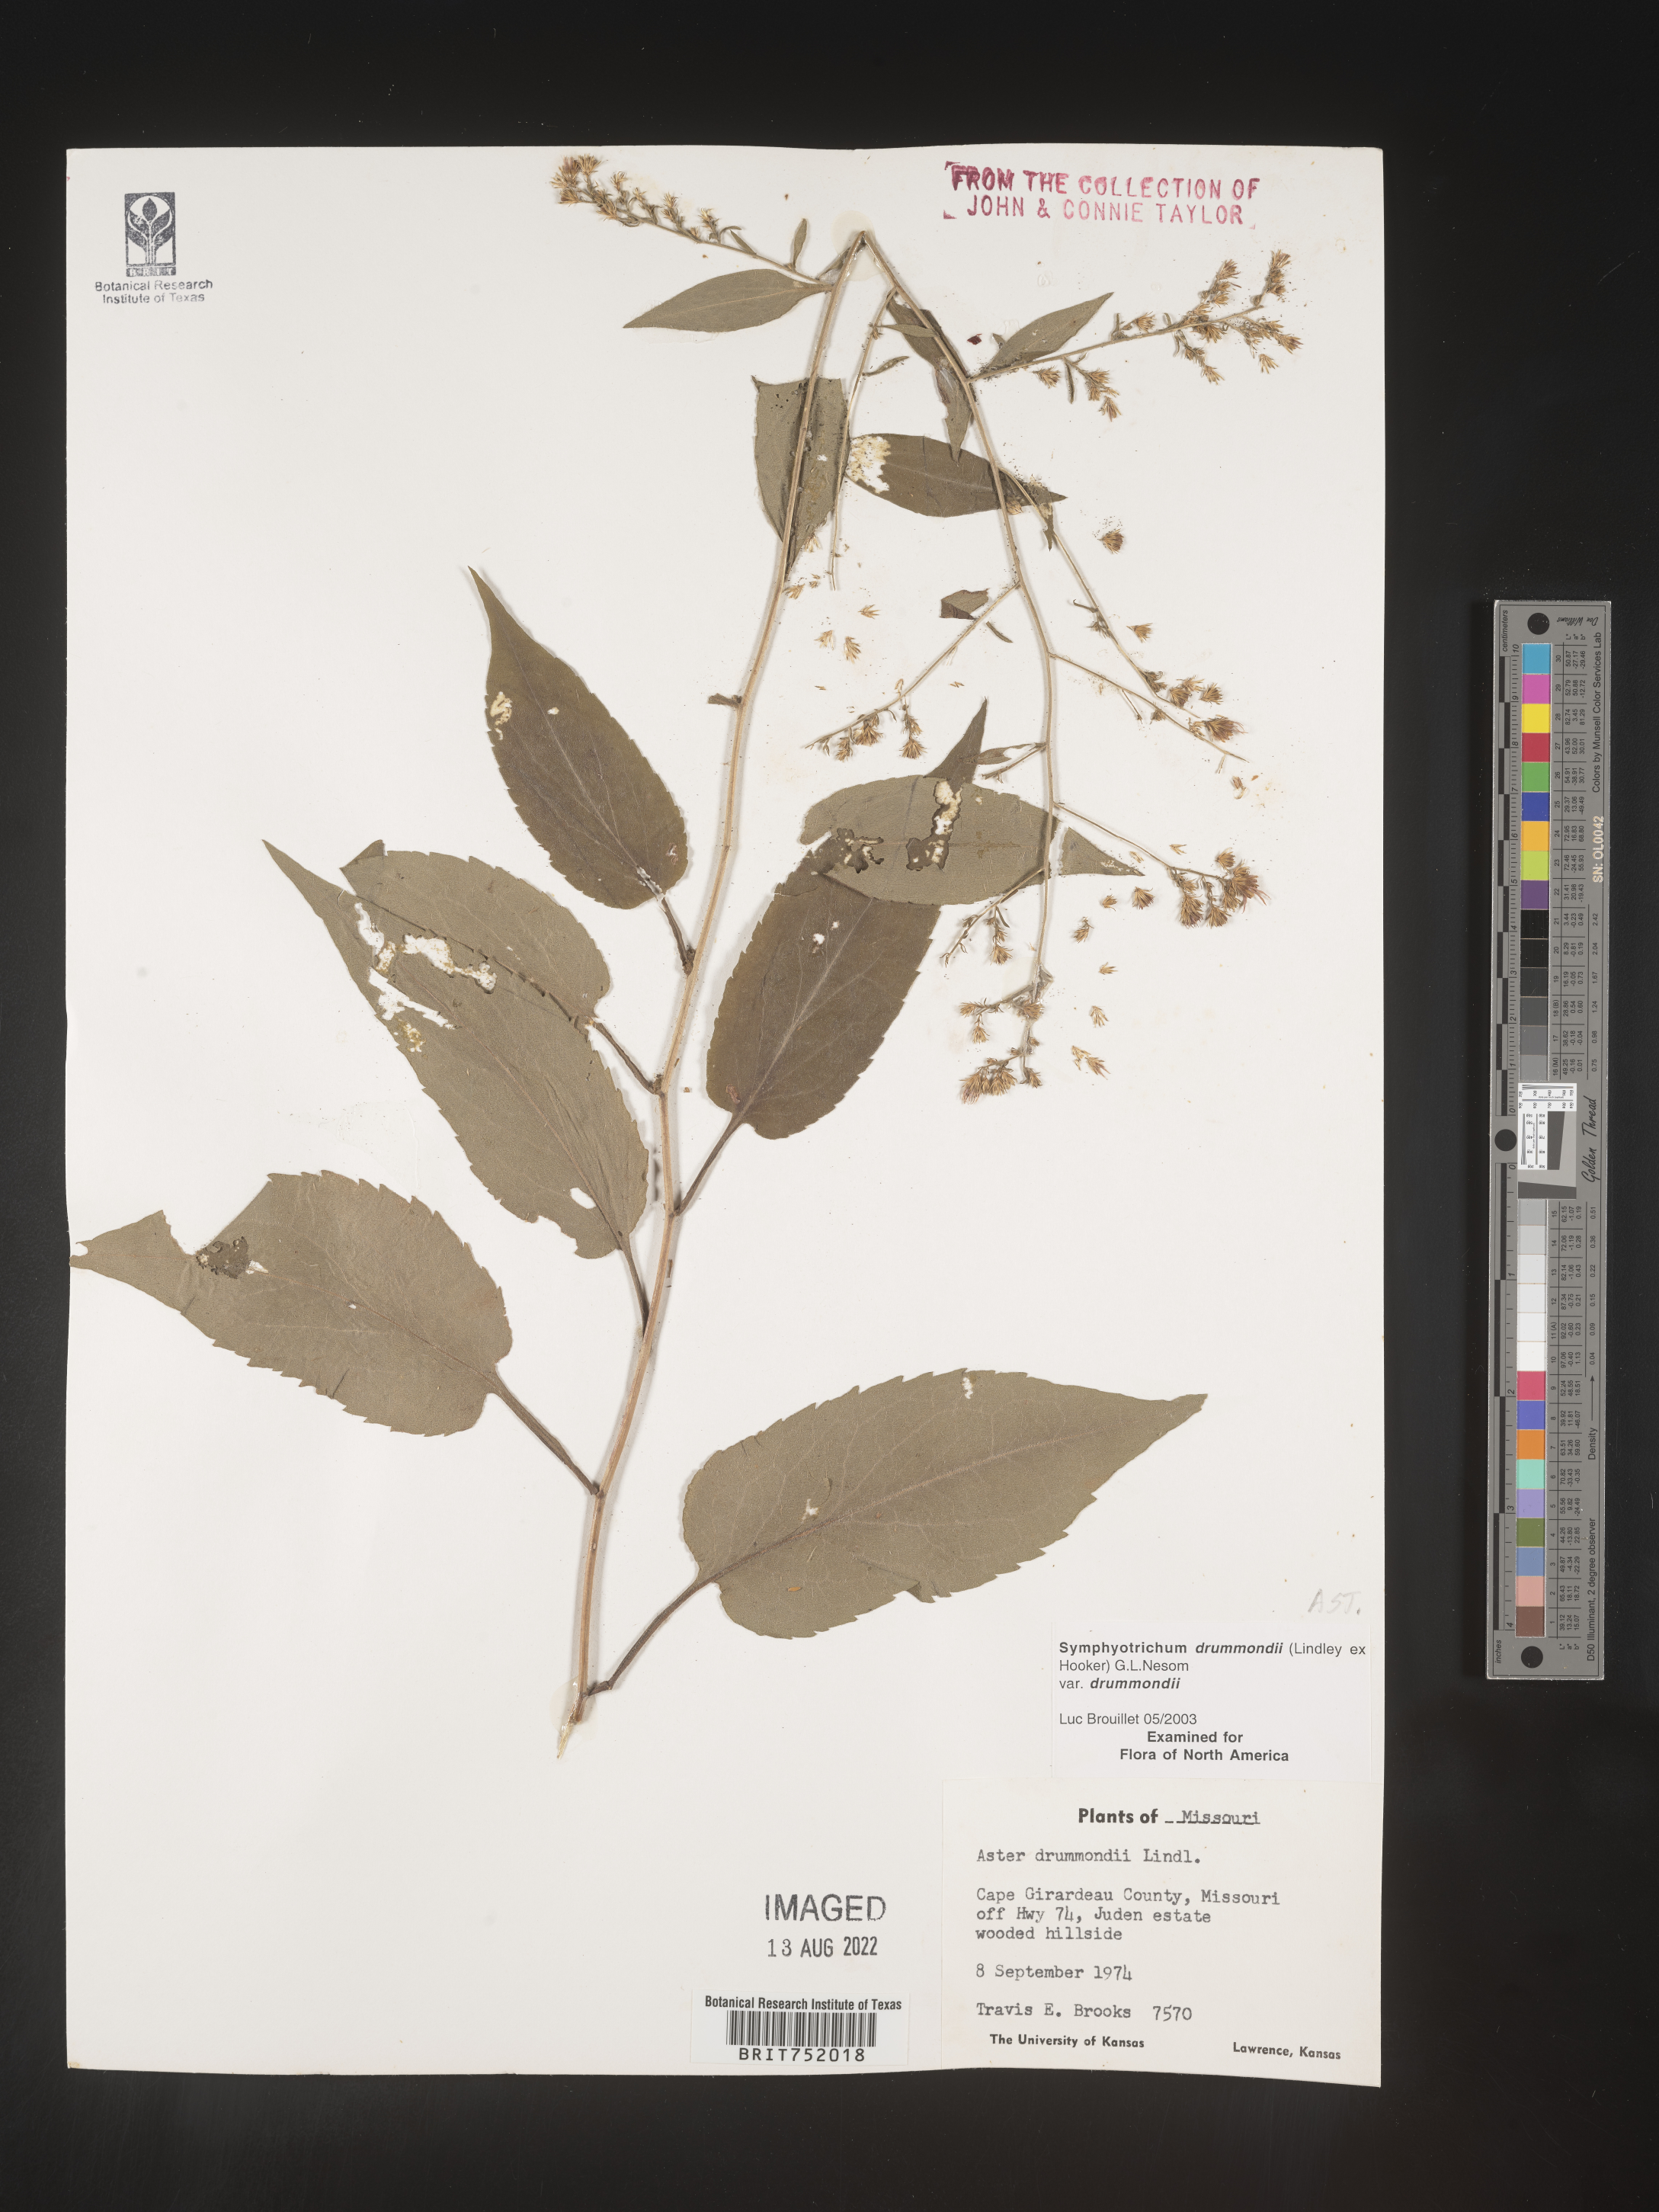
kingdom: Plantae
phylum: Tracheophyta
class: Magnoliopsida
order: Asterales
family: Asteraceae
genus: Symphyotrichum
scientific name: Symphyotrichum drummondii
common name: Drummond's aster
